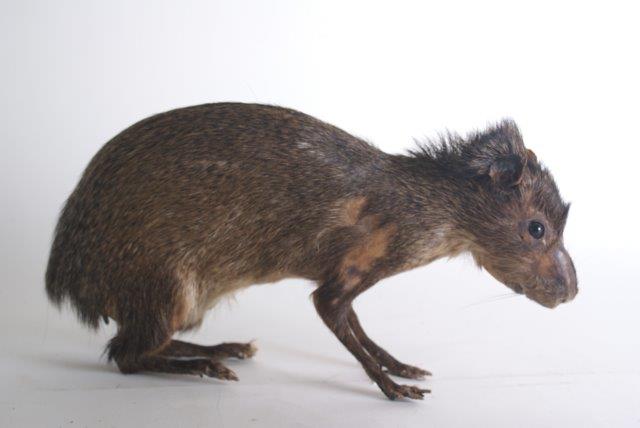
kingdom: Animalia
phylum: Chordata
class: Mammalia
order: Rodentia
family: Dasyproctidae
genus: Dasyprocta
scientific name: Dasyprocta leporina
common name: Red-rumped Agouti
